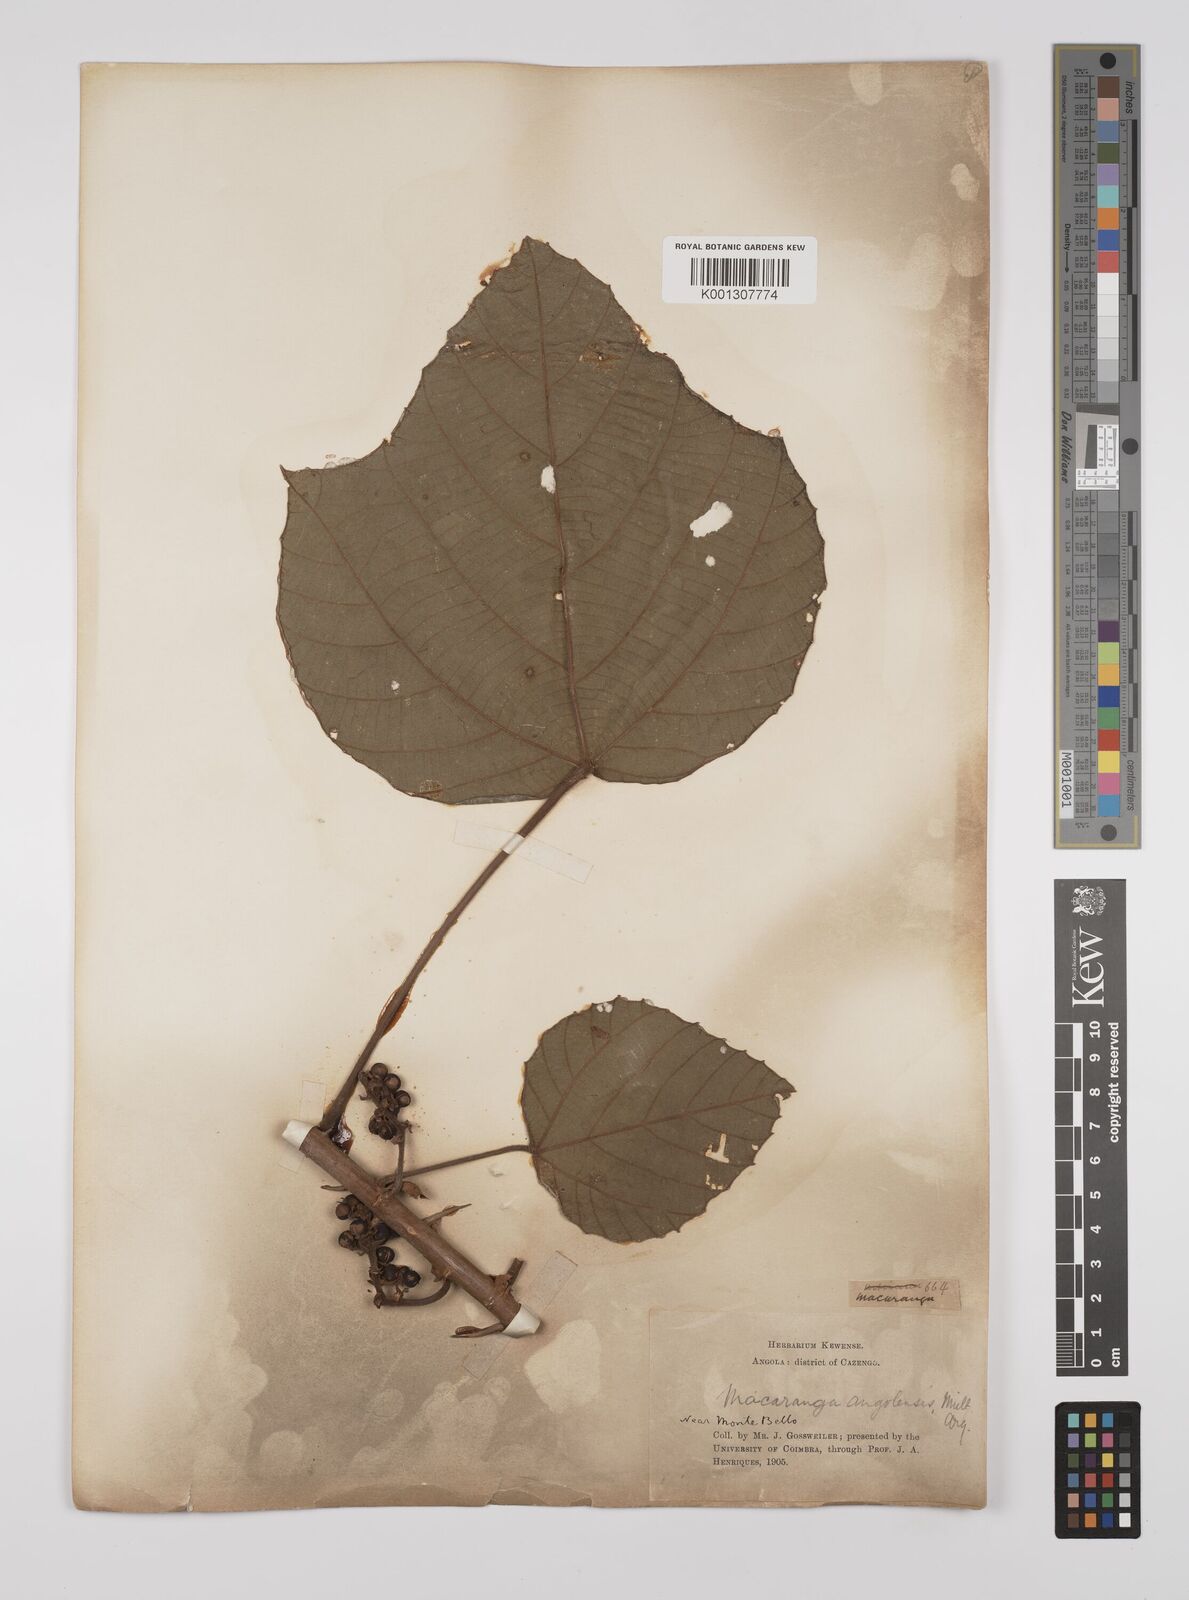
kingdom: Plantae
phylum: Tracheophyta
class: Magnoliopsida
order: Malpighiales
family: Euphorbiaceae
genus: Macaranga
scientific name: Macaranga
